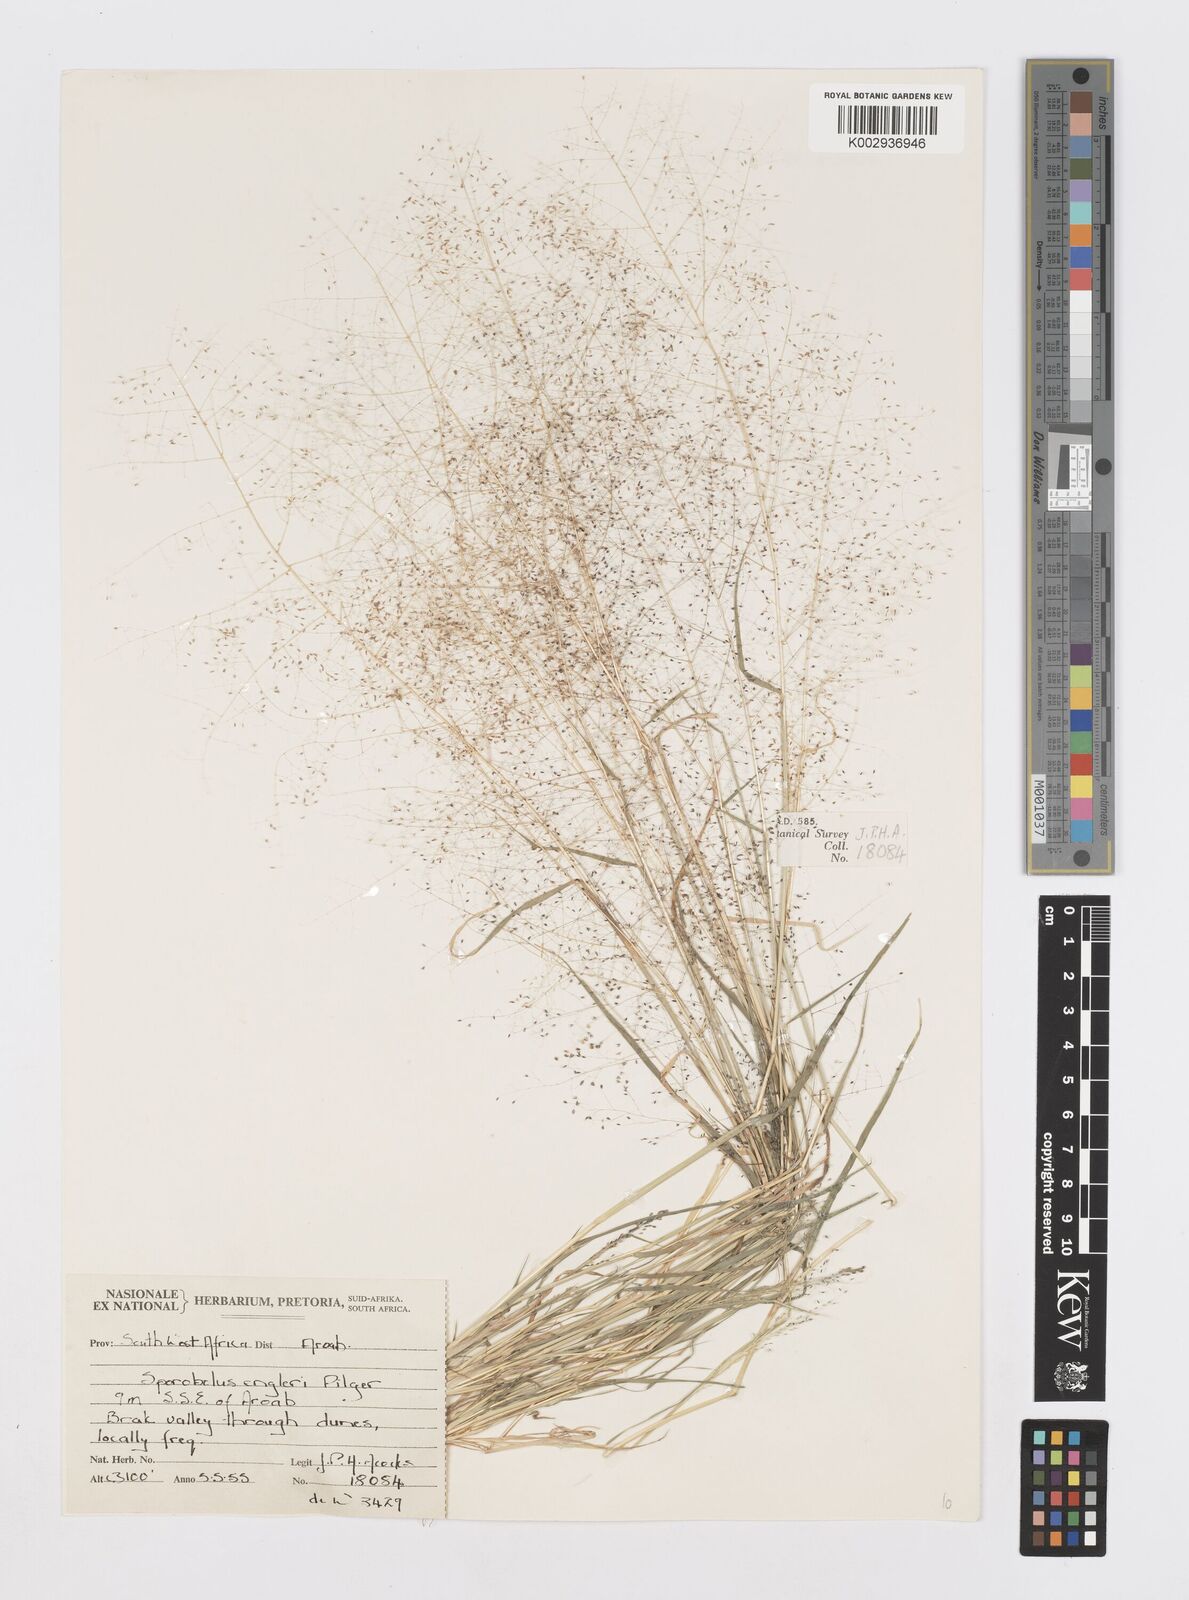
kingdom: Plantae
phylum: Tracheophyta
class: Liliopsida
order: Poales
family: Poaceae
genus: Sporobolus
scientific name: Sporobolus engleri
